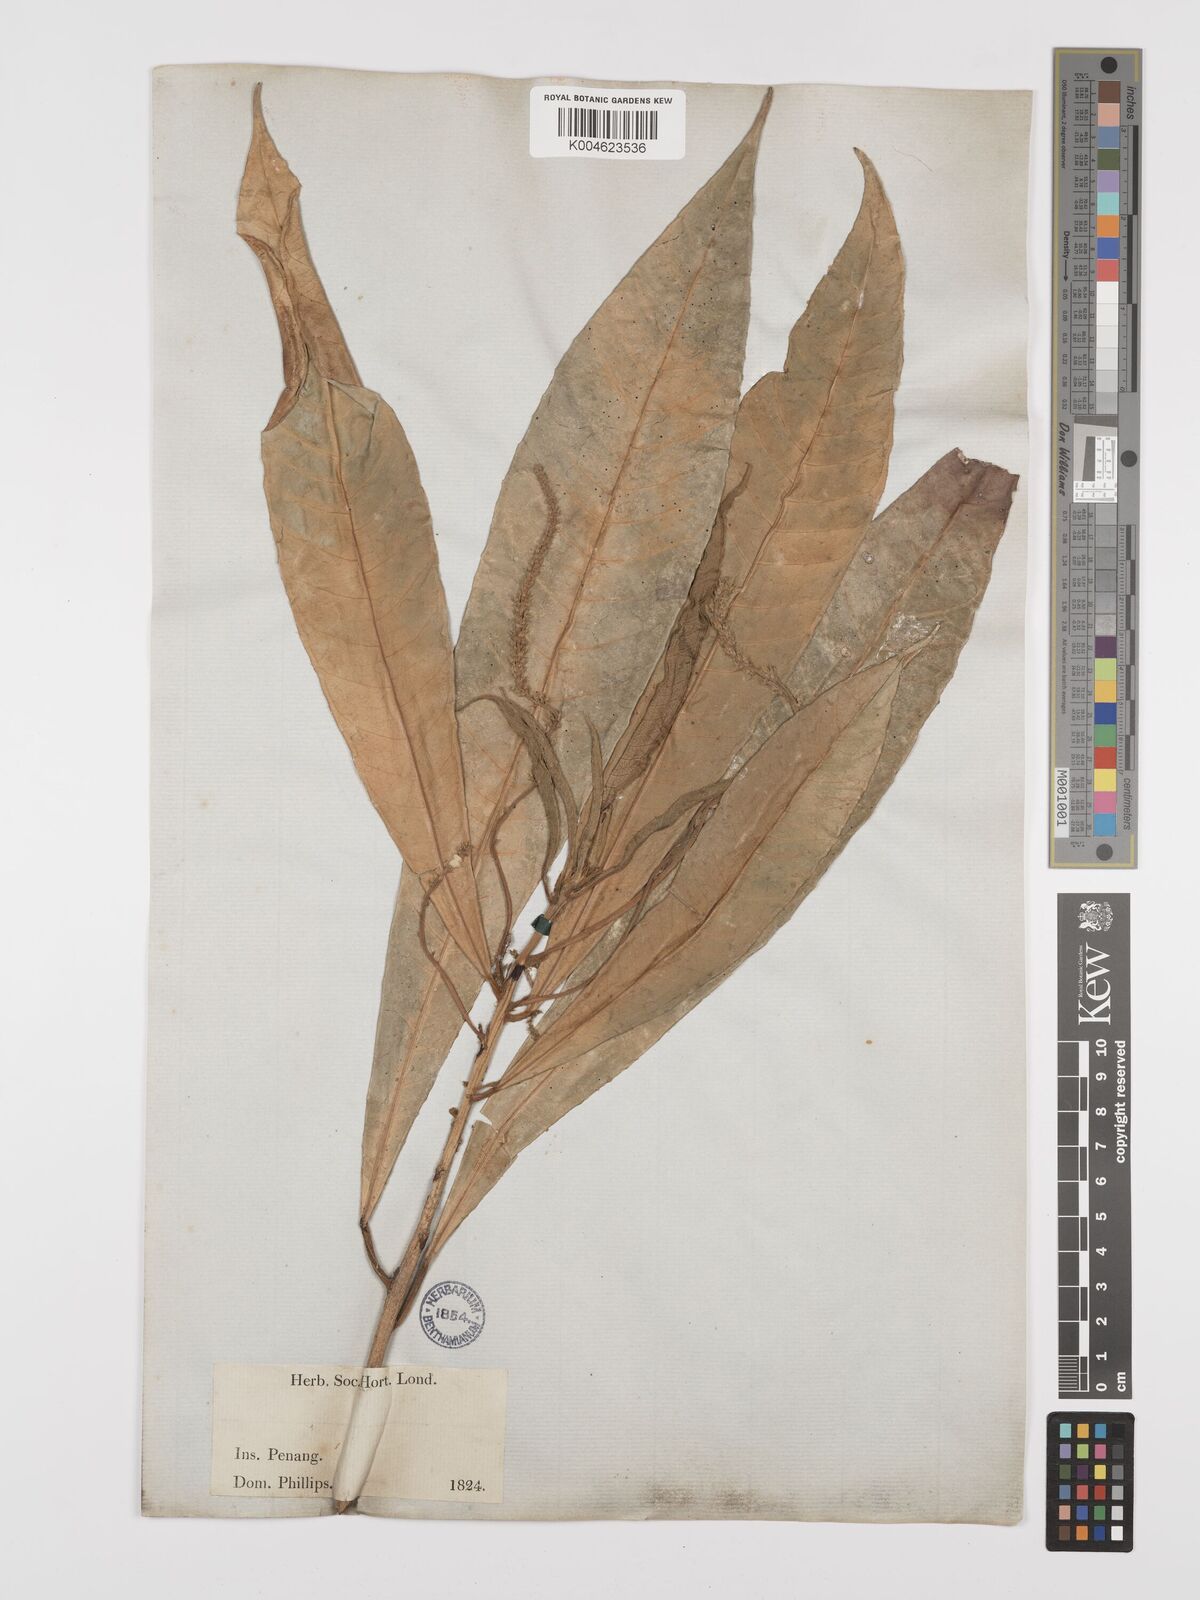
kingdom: Plantae
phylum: Tracheophyta
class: Magnoliopsida
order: Malpighiales
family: Euphorbiaceae
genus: Trigonostemon
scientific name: Trigonostemon longifolius
